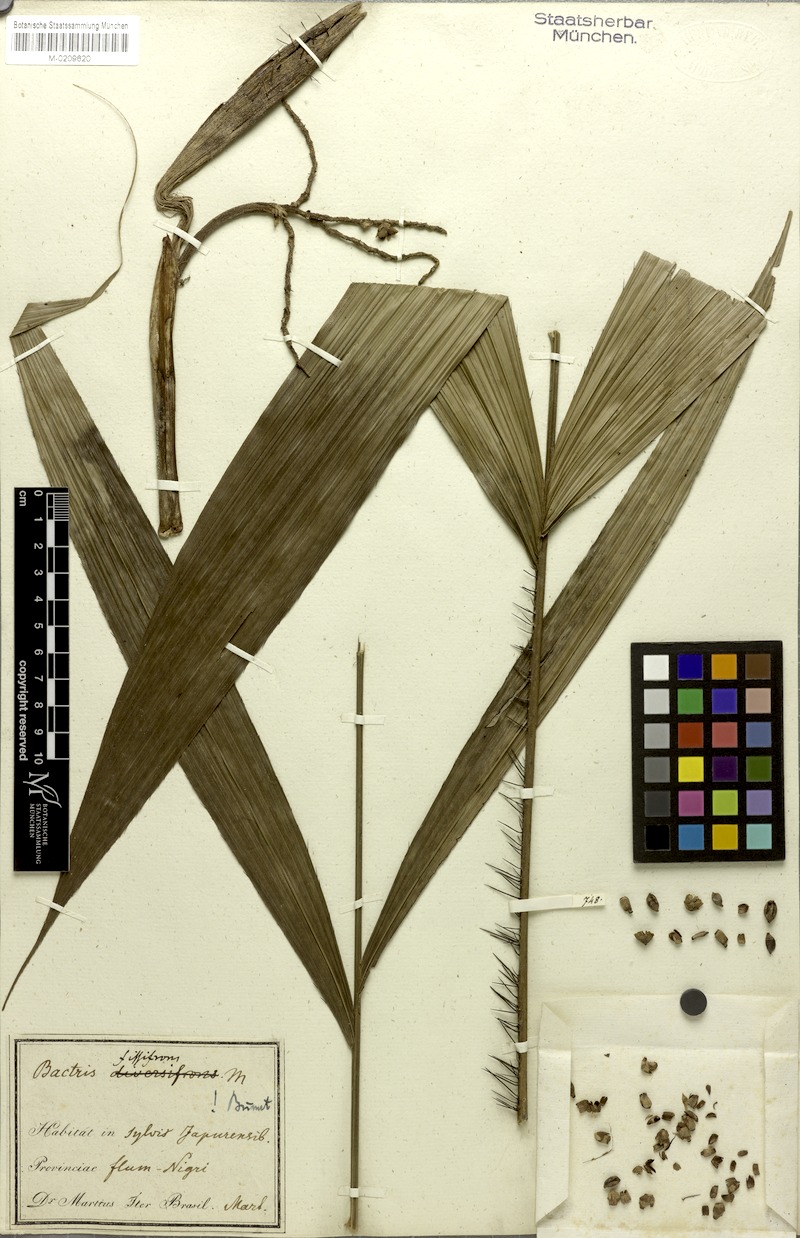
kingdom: Plantae
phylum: Tracheophyta
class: Liliopsida
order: Arecales
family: Arecaceae
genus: Bactris
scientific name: Bactris fissifrons
